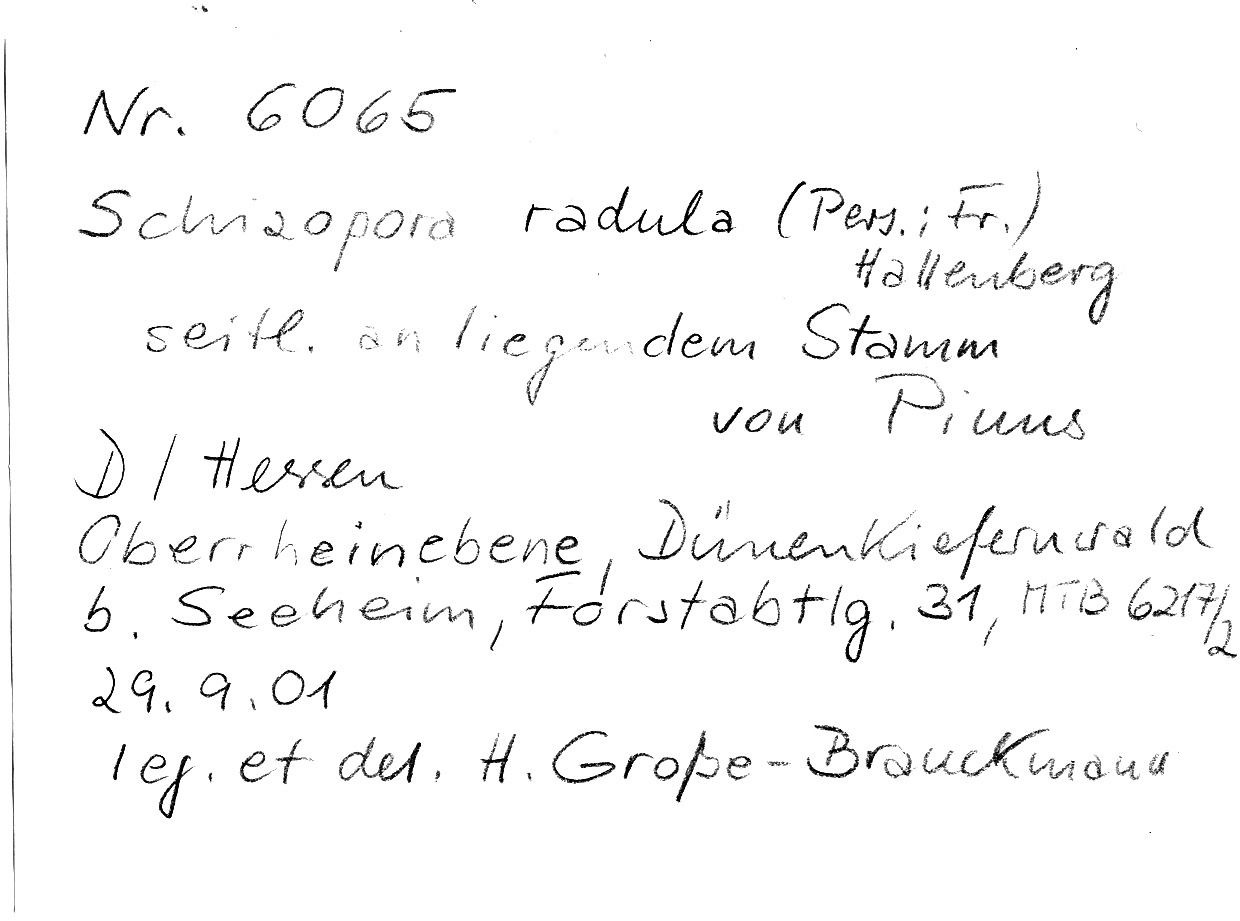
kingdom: Fungi
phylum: Basidiomycota
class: Agaricomycetes
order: Hymenochaetales
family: Schizoporaceae
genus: Xylodon
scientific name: Xylodon raduloides
